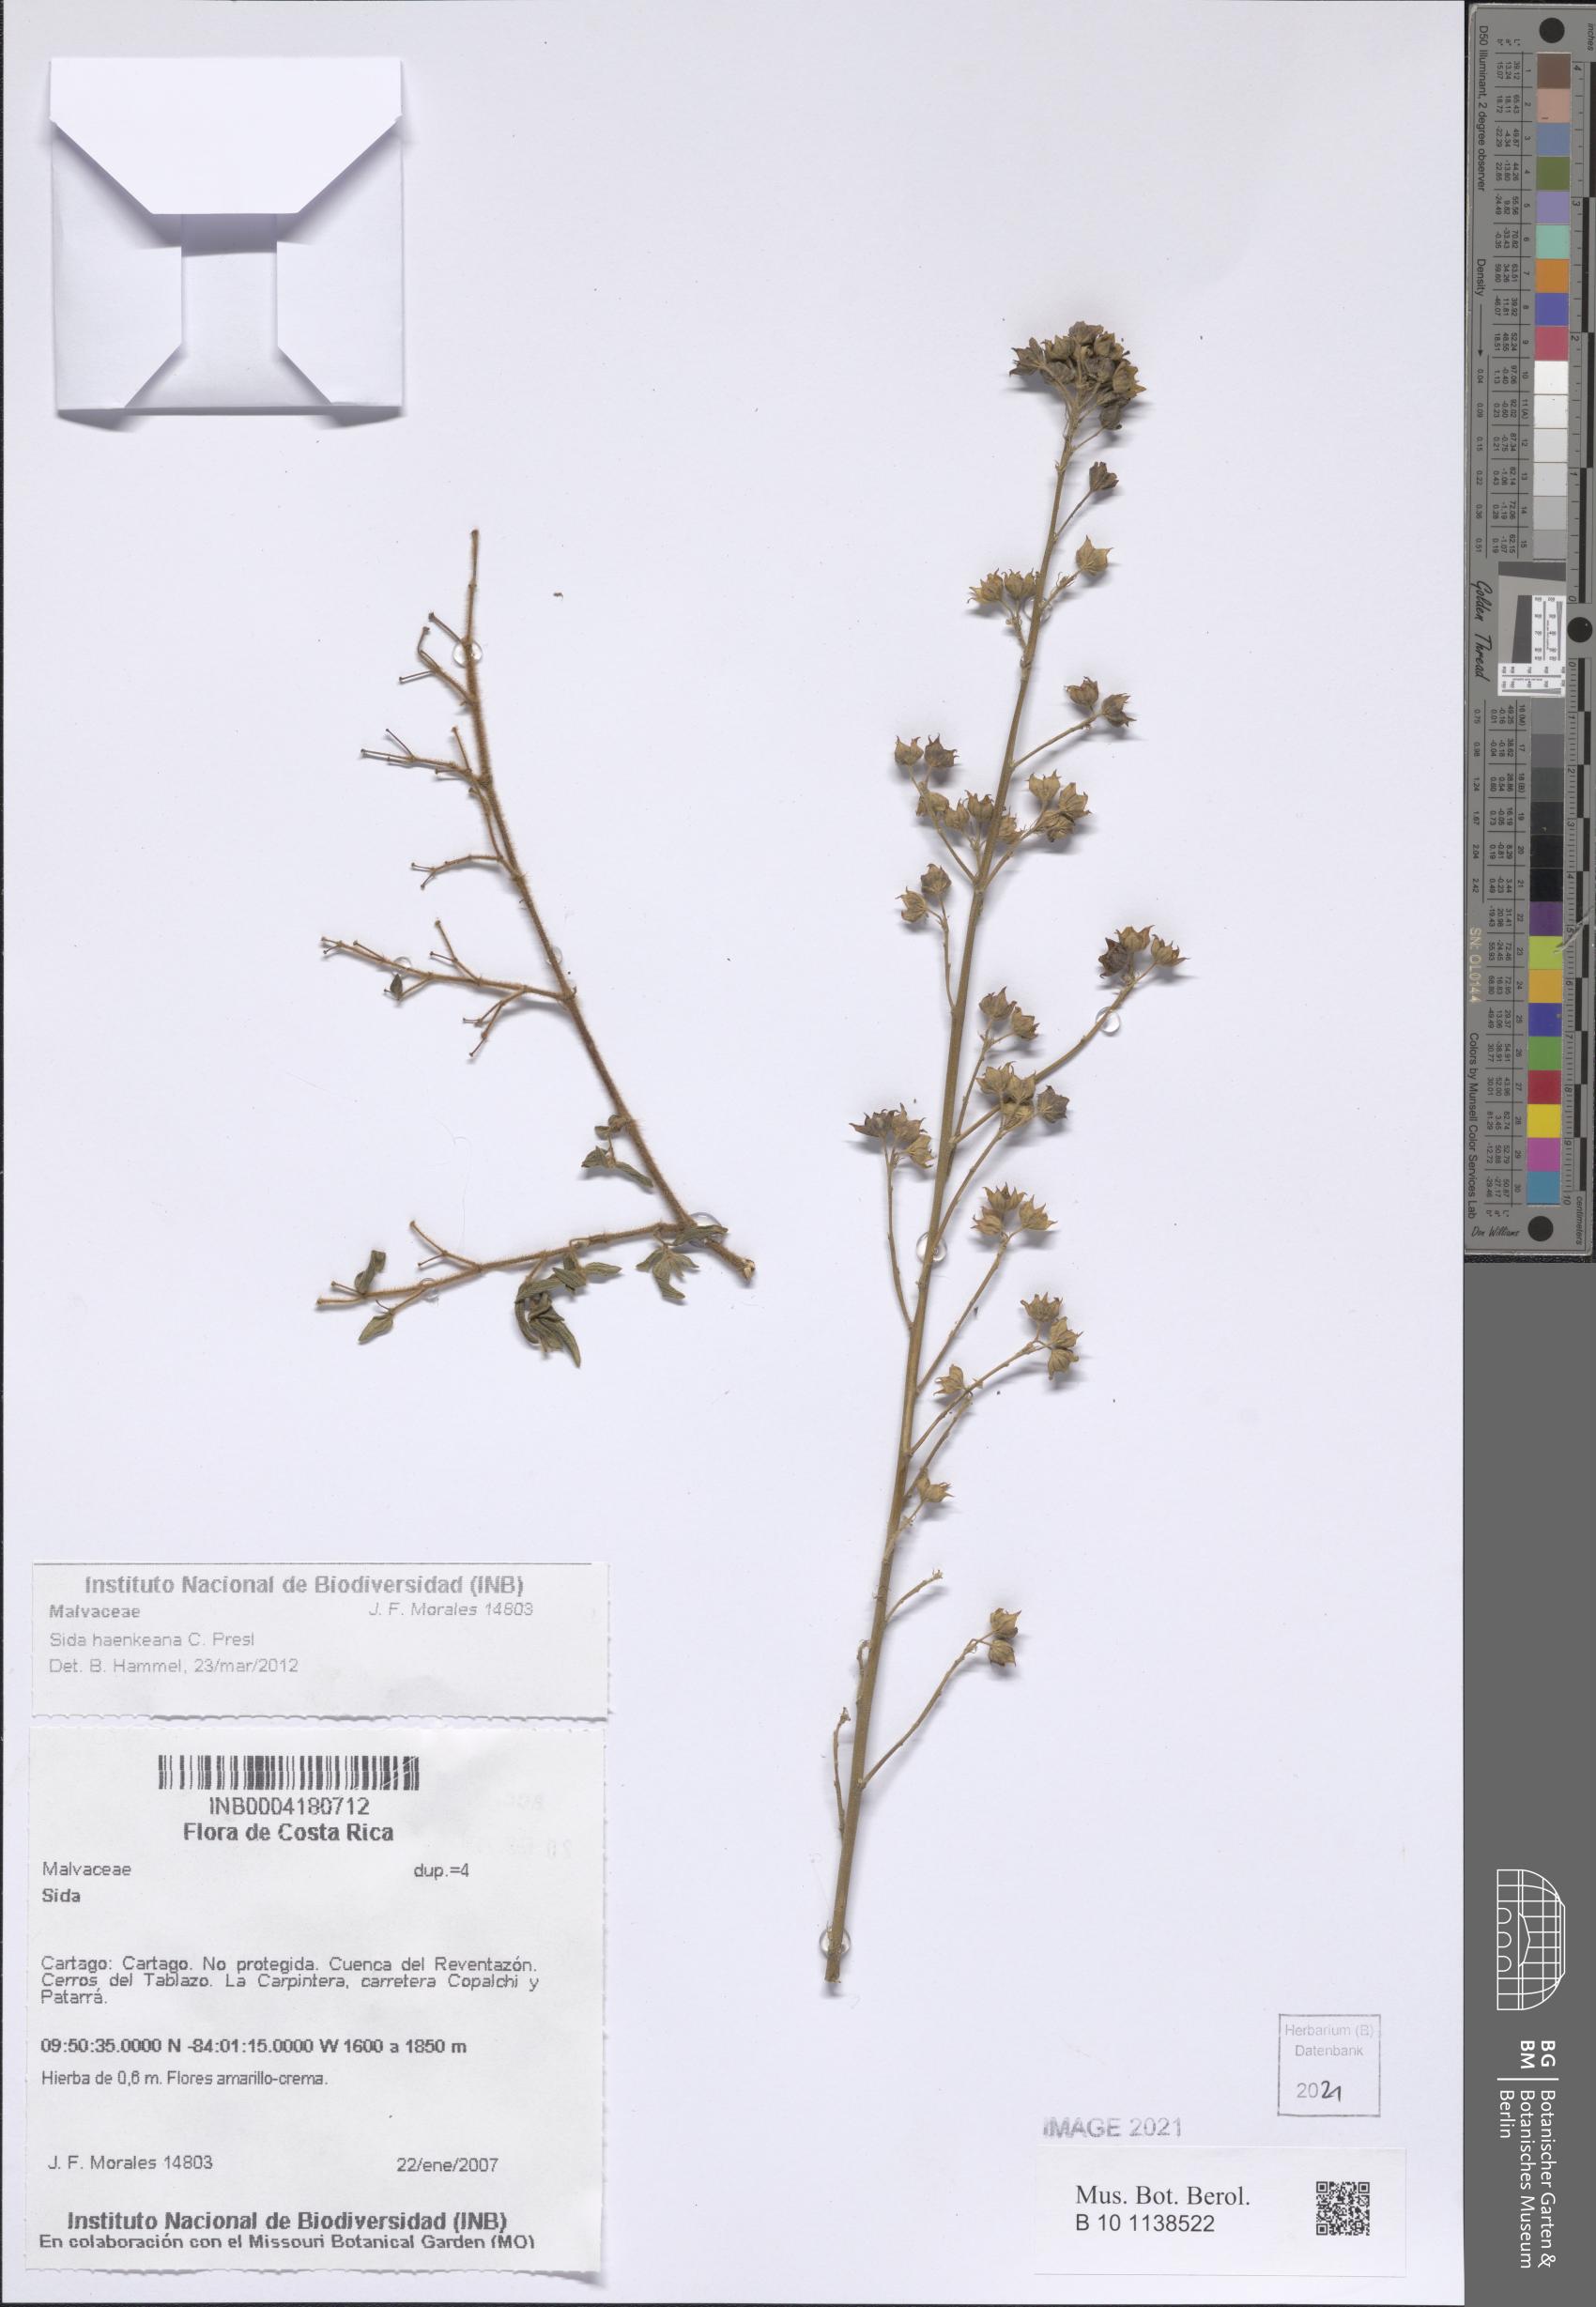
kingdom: Plantae
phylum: Tracheophyta
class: Magnoliopsida
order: Malvales
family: Malvaceae
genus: Sida
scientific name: Sida haenkeana
